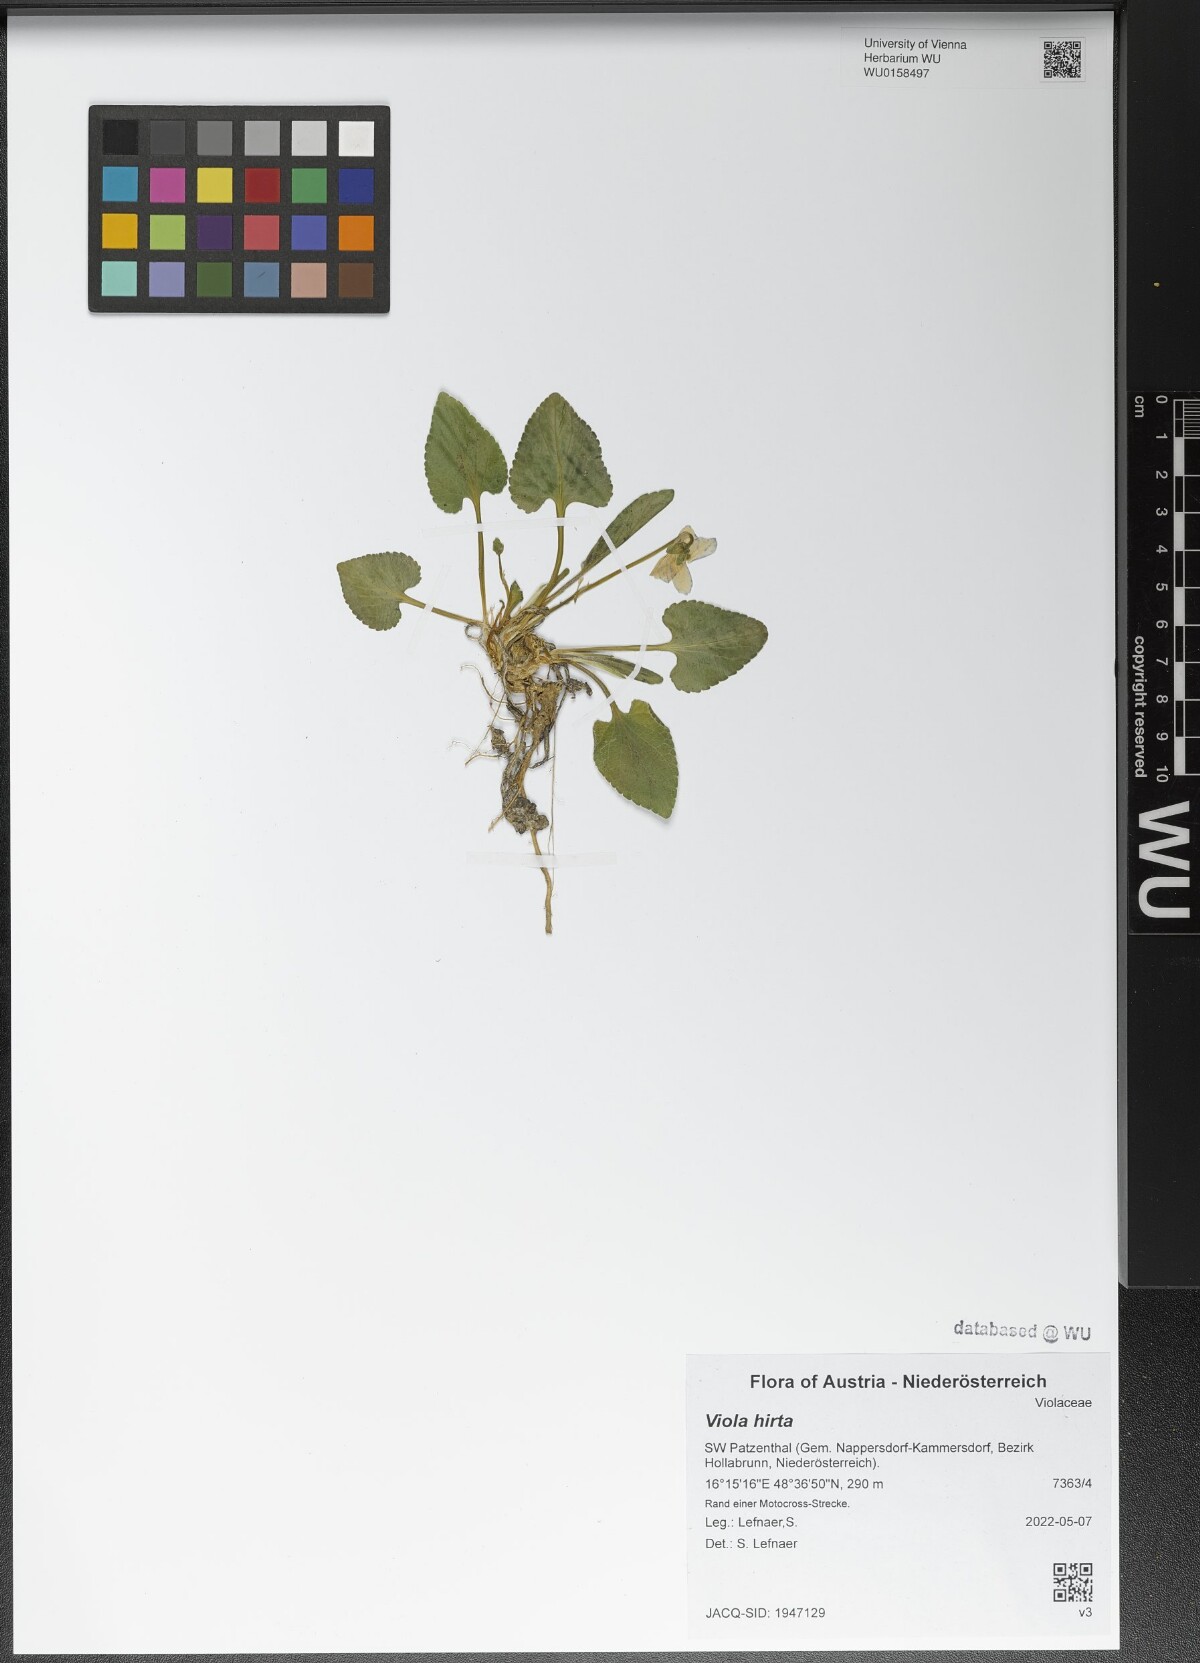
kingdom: Plantae
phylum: Tracheophyta
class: Magnoliopsida
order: Malpighiales
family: Violaceae
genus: Viola
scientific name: Viola hirta
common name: Hairy violet
